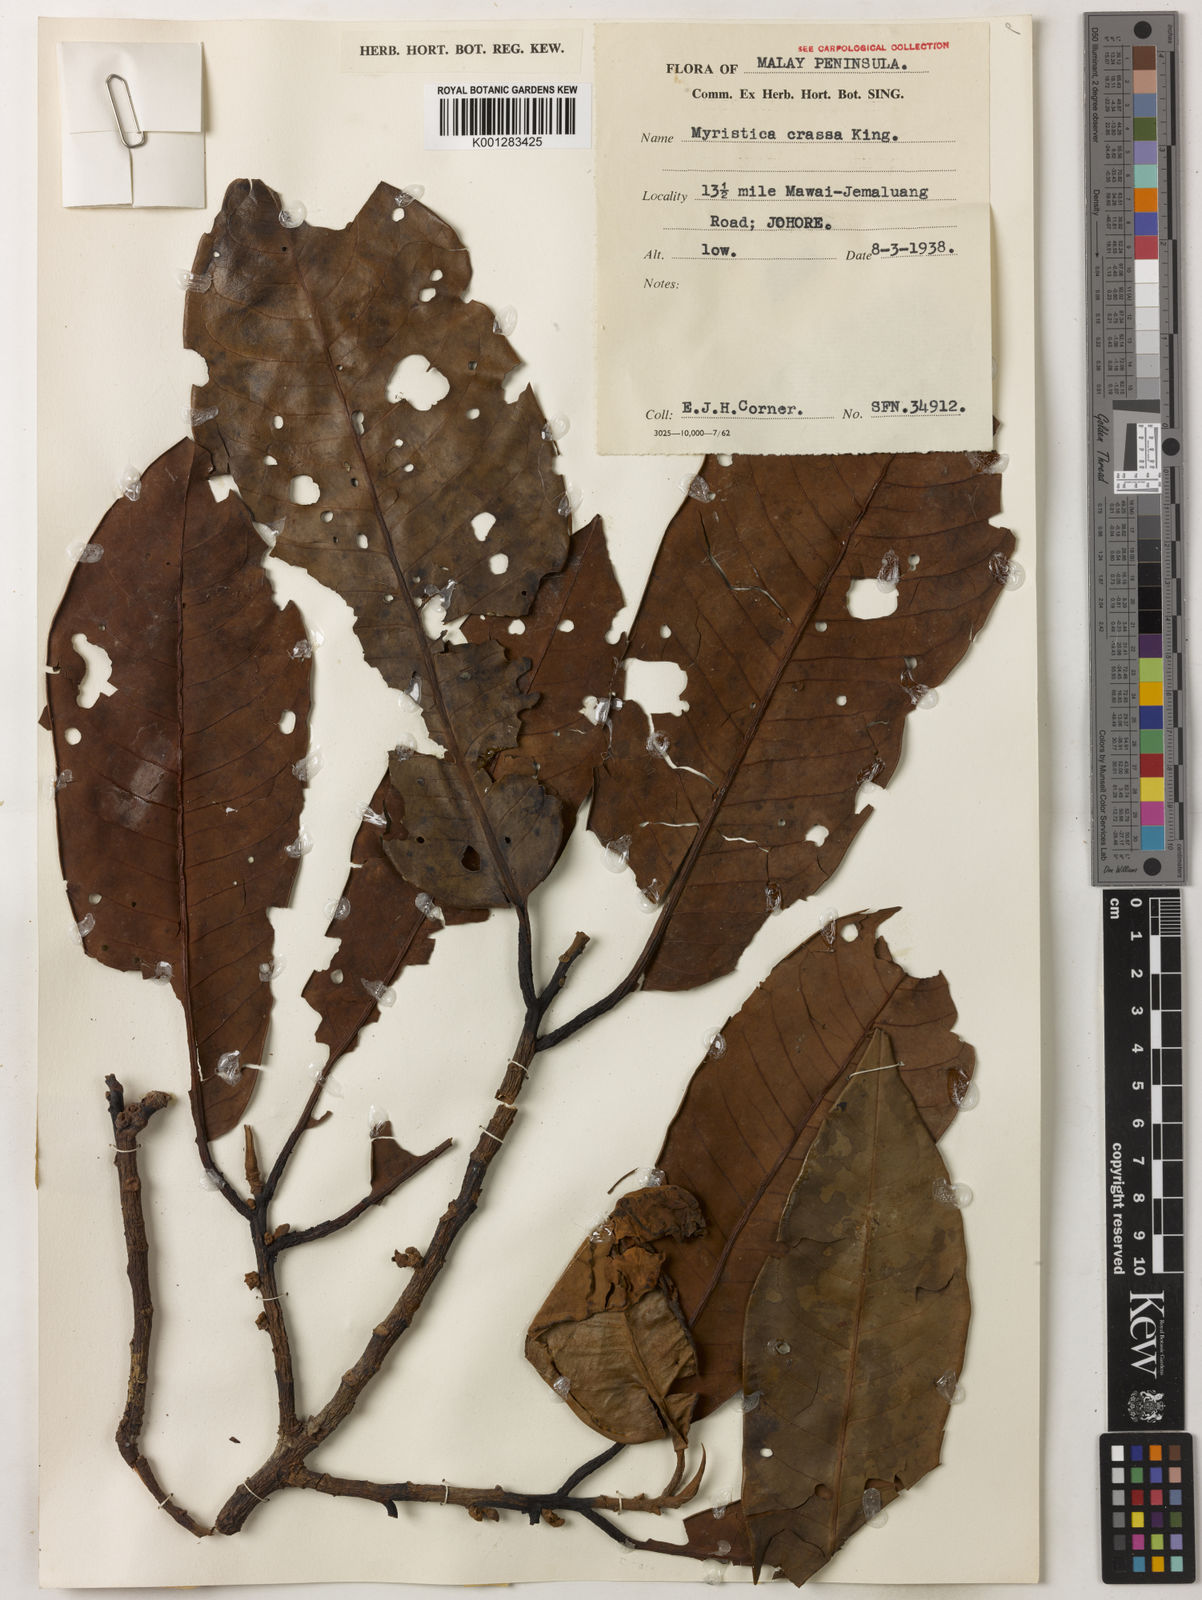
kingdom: Plantae
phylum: Tracheophyta
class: Magnoliopsida
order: Magnoliales
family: Myristicaceae
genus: Myristica
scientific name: Myristica crassa
